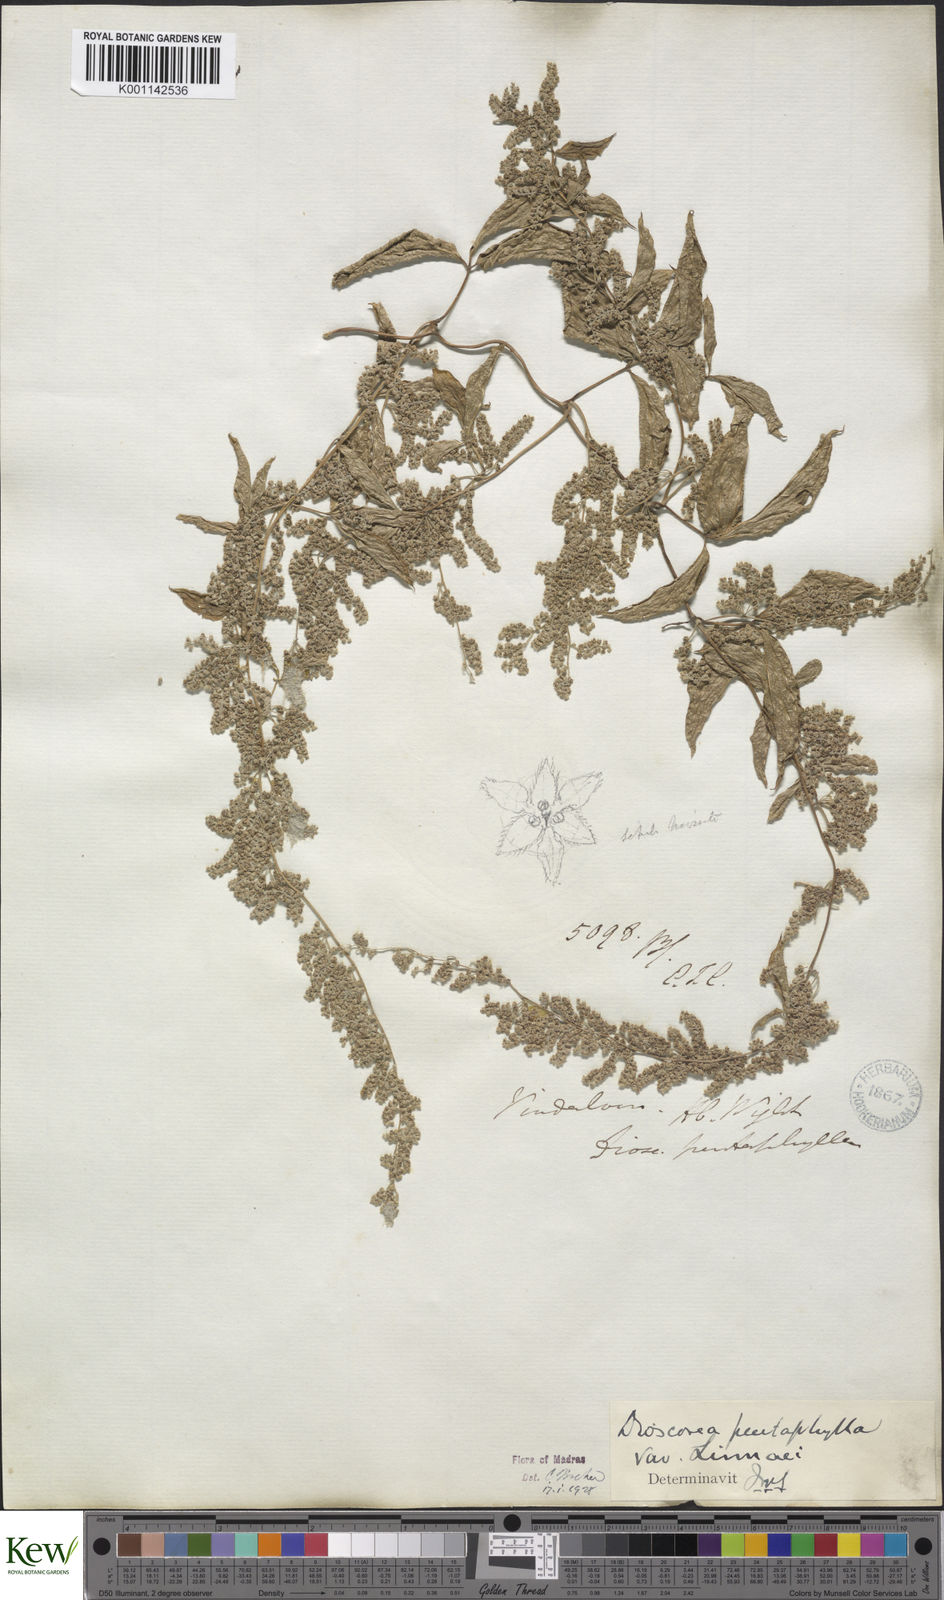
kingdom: Plantae
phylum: Tracheophyta
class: Liliopsida
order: Dioscoreales
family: Dioscoreaceae
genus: Dioscorea
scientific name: Dioscorea pentaphylla
